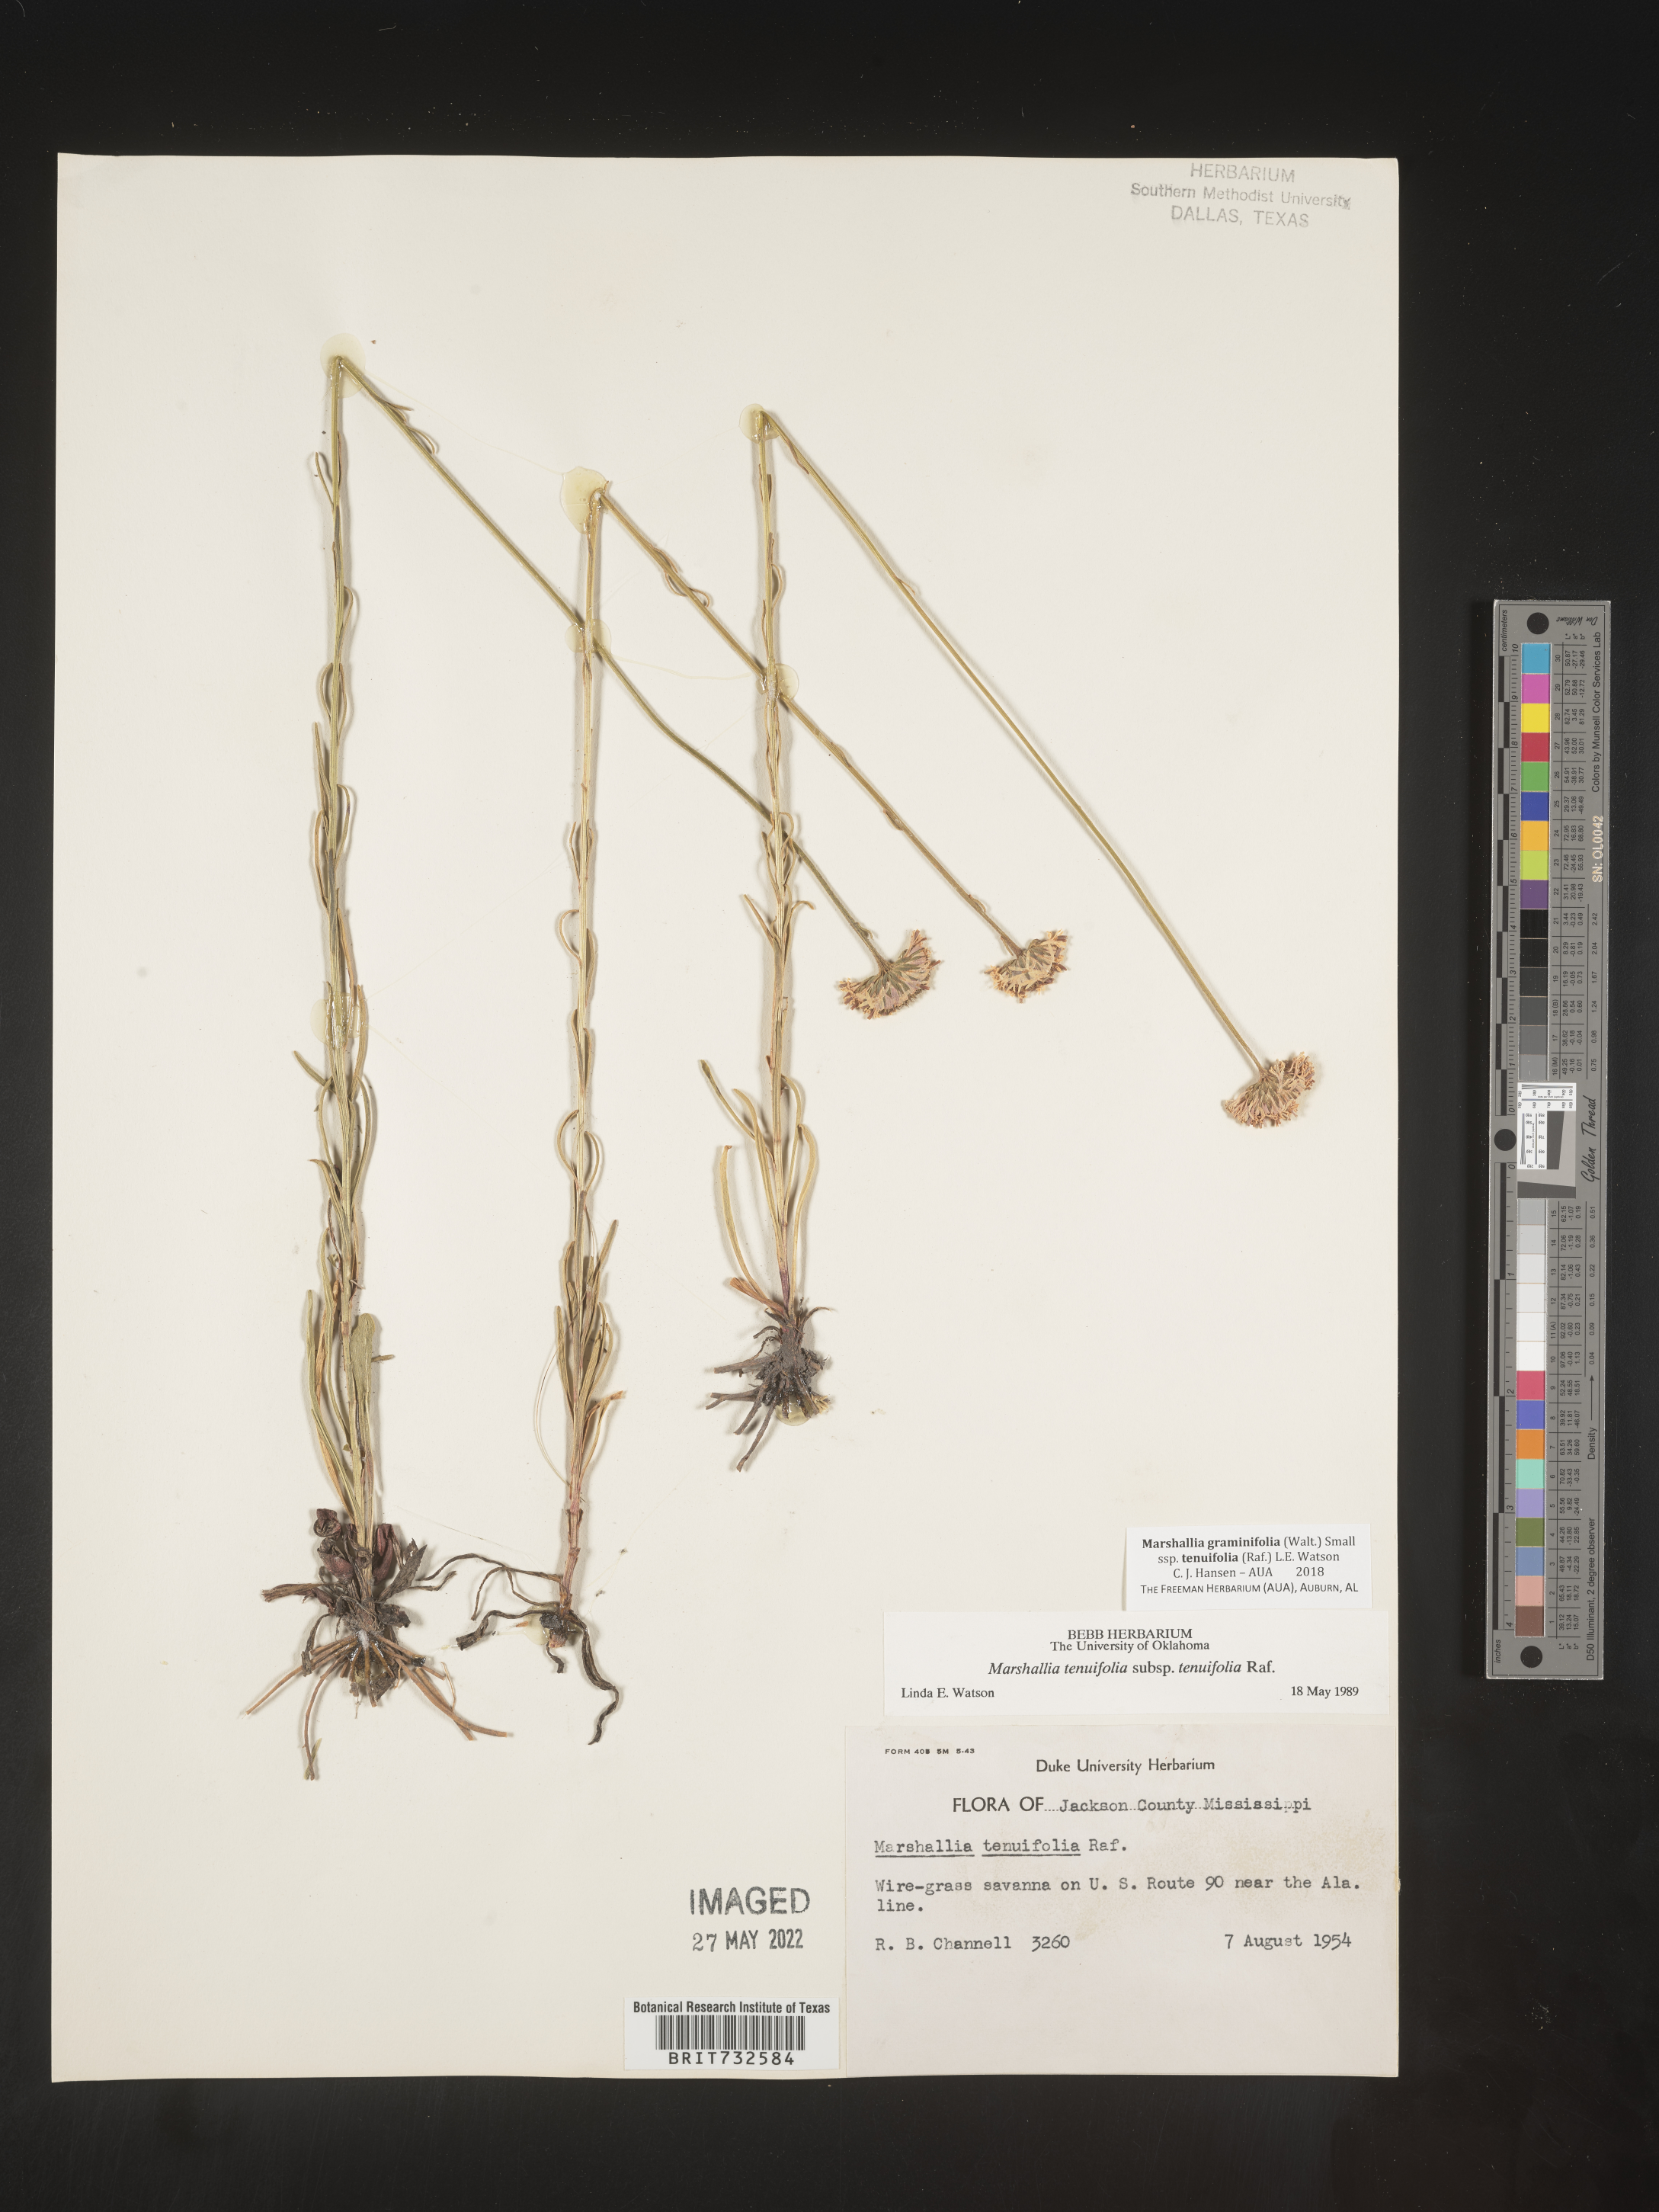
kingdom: Plantae
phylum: Tracheophyta
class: Magnoliopsida
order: Asterales
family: Asteraceae
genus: Marshallia
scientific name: Marshallia graminifolia
